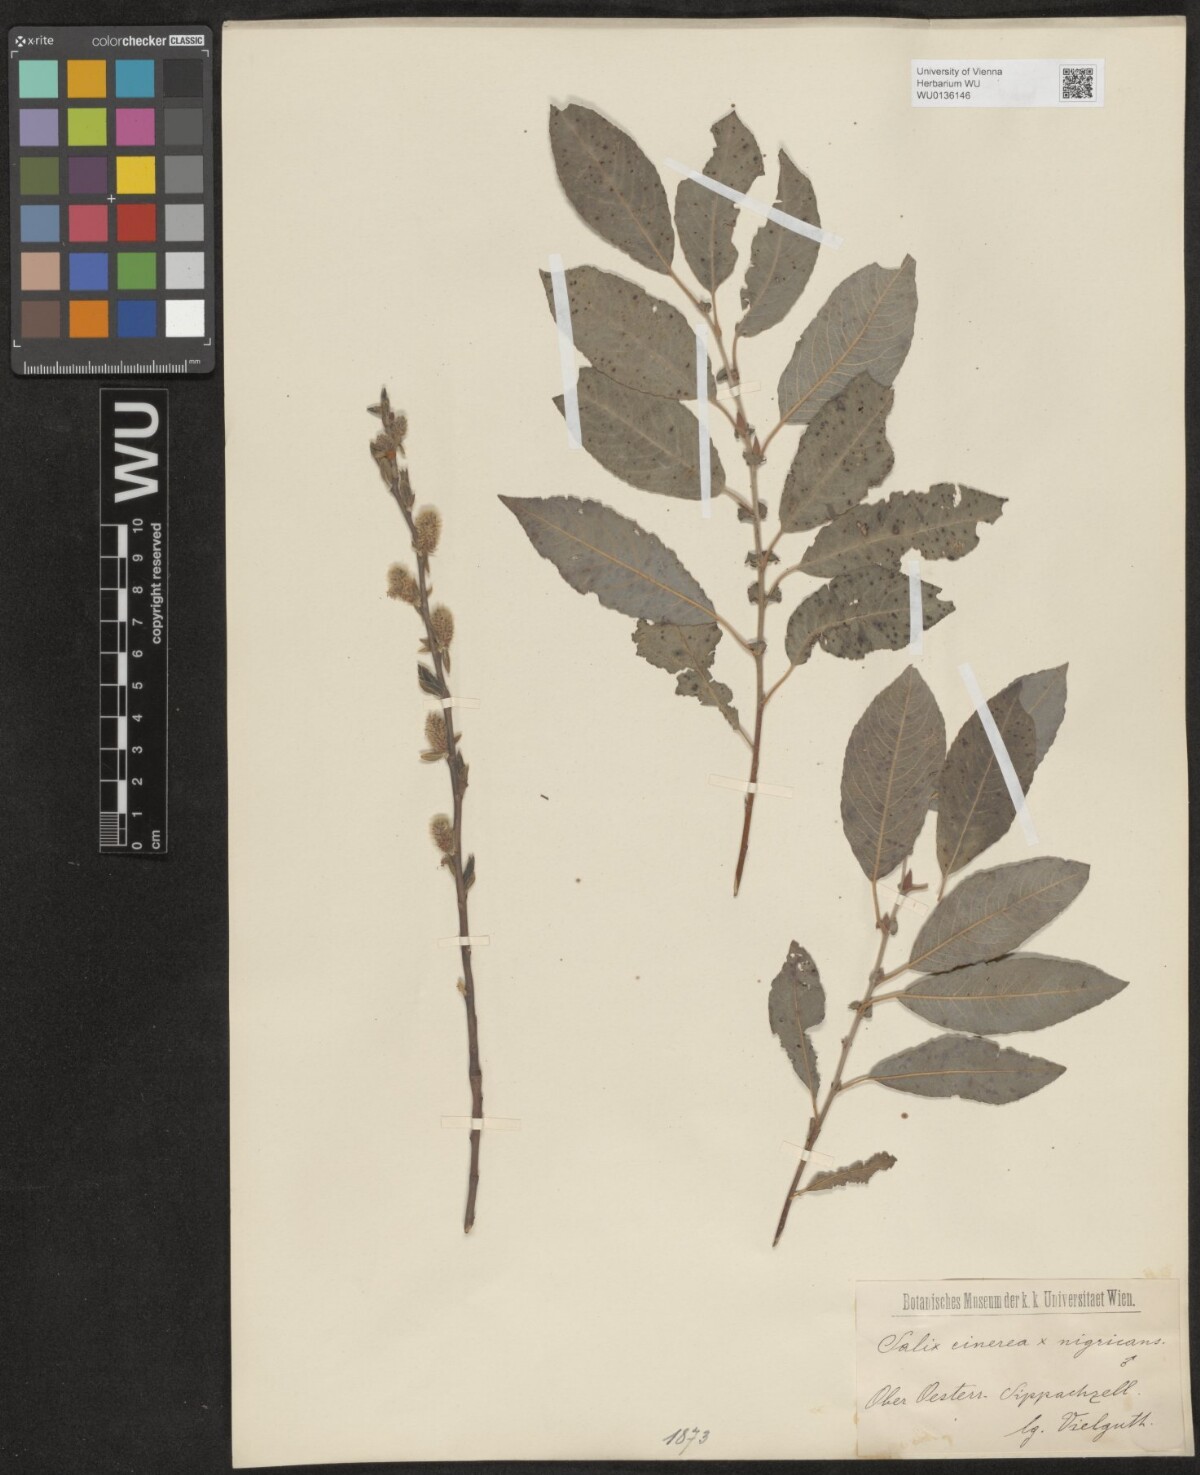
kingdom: Plantae
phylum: Tracheophyta
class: Magnoliopsida
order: Malpighiales
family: Salicaceae
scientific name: Salicaceae
